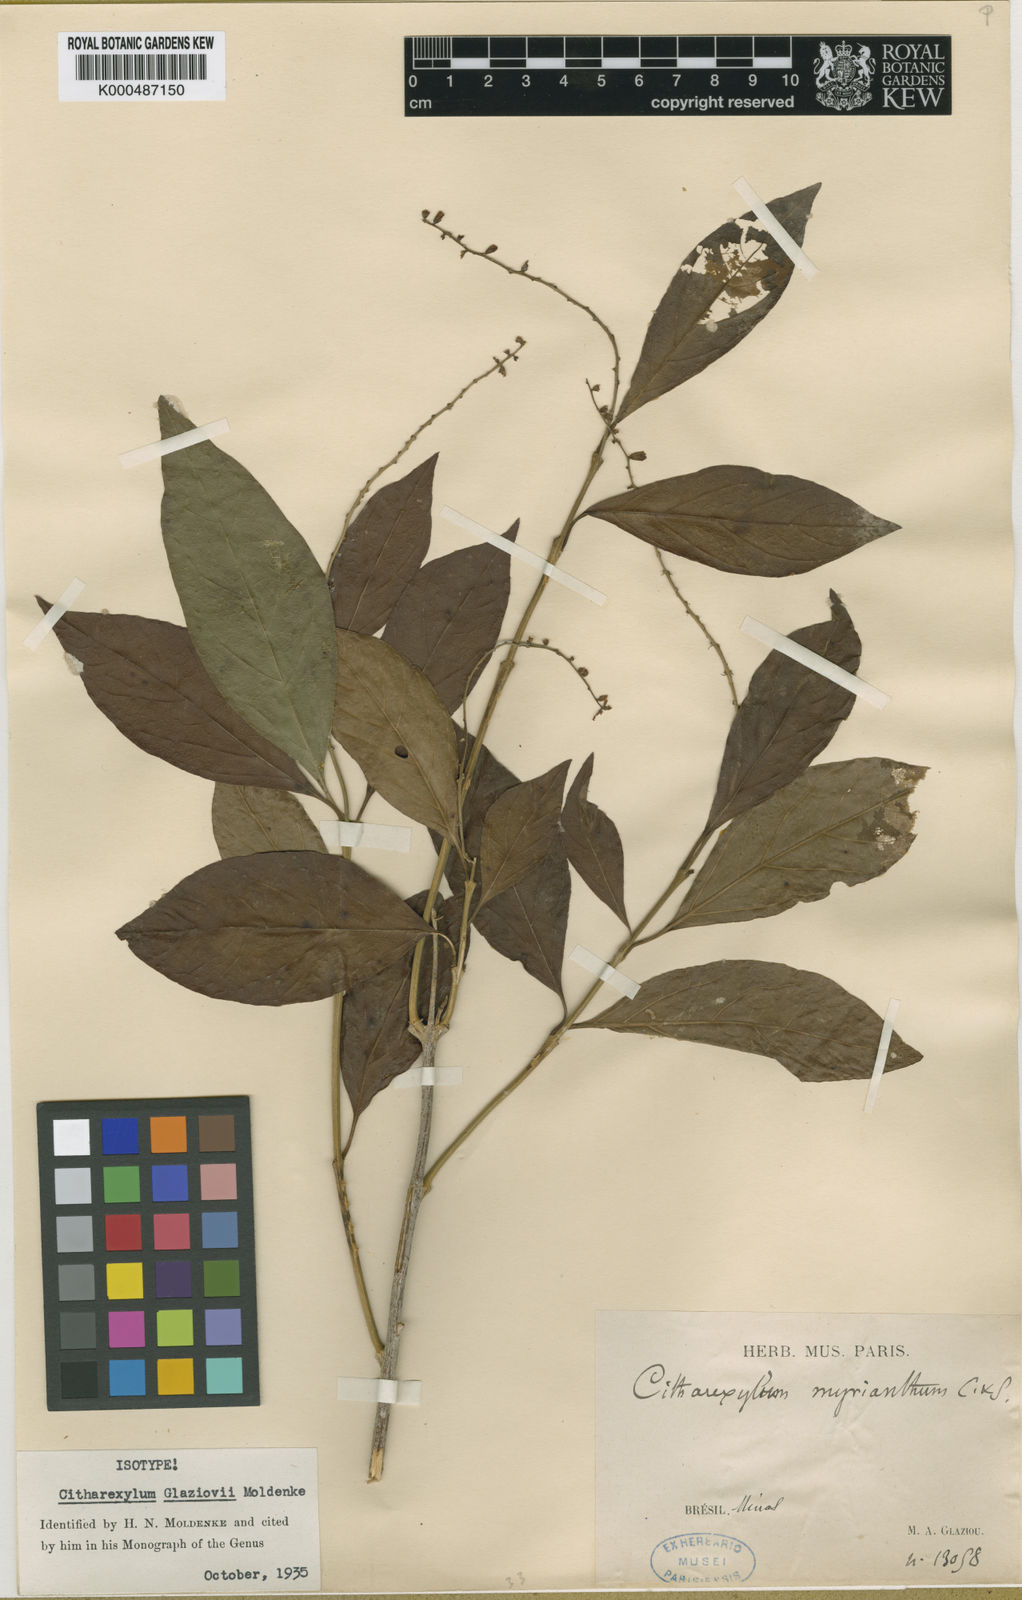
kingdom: Plantae
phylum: Tracheophyta
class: Magnoliopsida
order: Lamiales
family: Verbenaceae
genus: Citharexylum
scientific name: Citharexylum myrianthum
